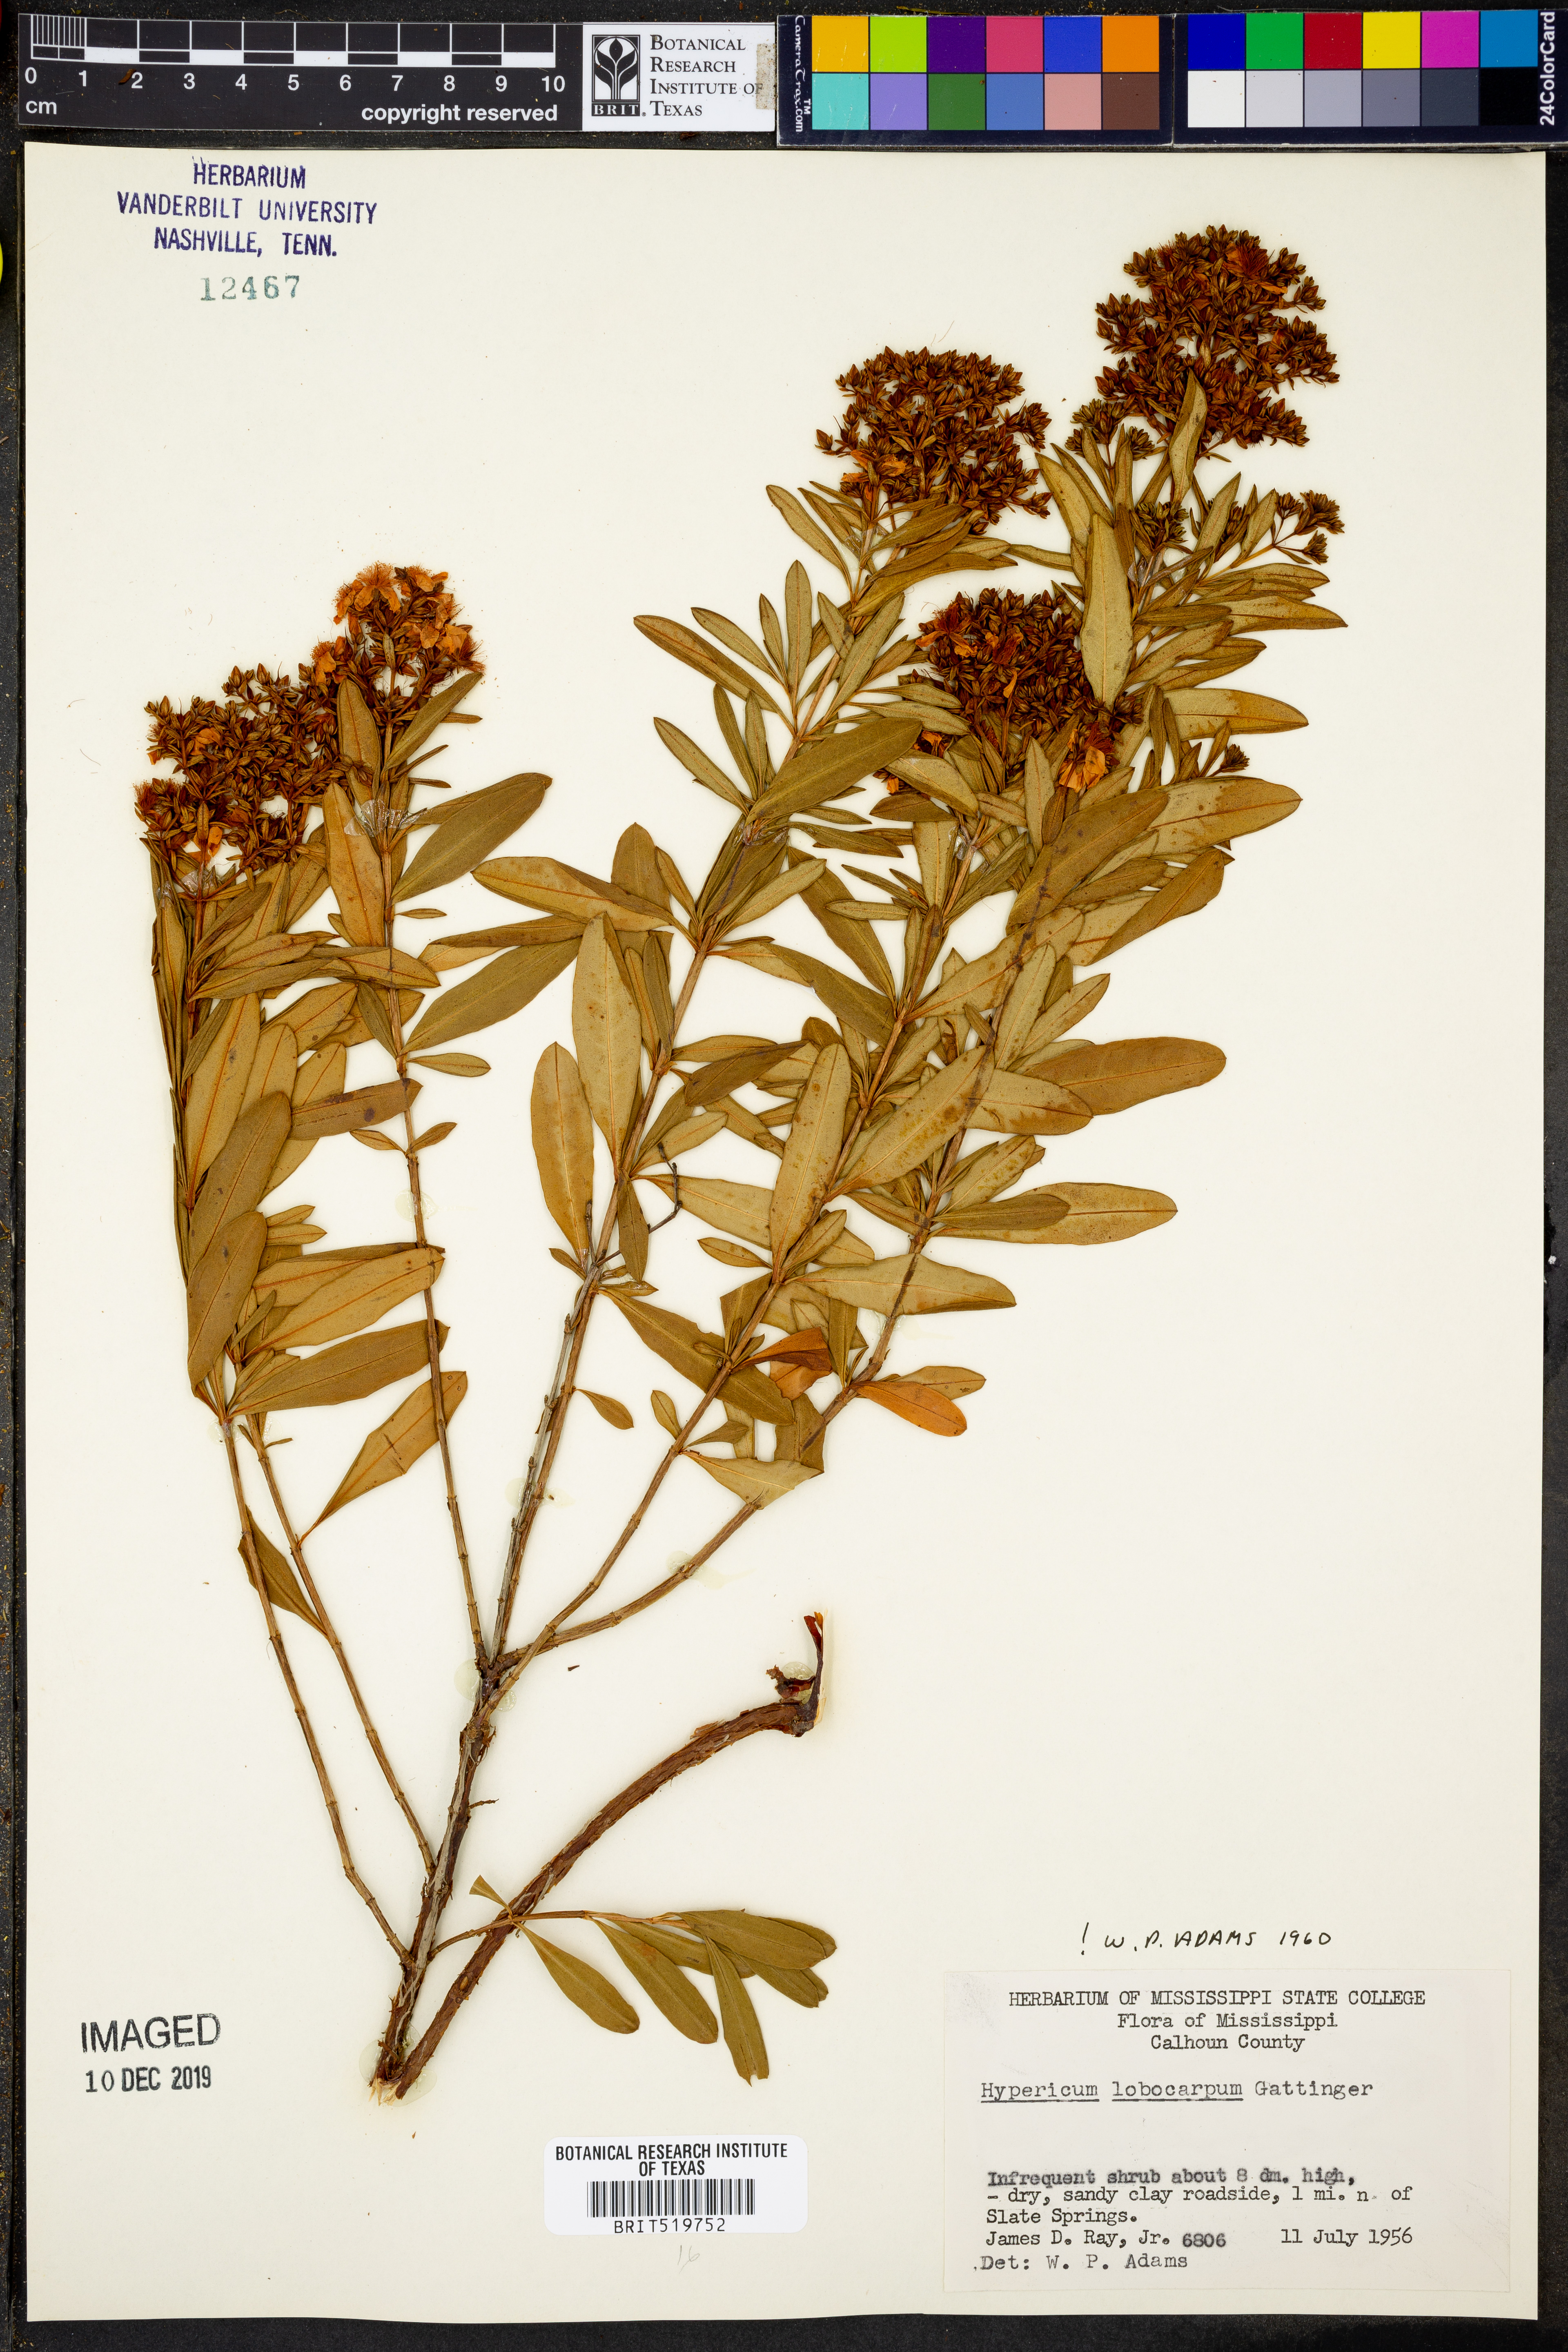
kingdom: Plantae
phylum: Tracheophyta
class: Magnoliopsida
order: Malpighiales
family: Hypericaceae
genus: Hypericum
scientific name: Hypericum lobocarpum
